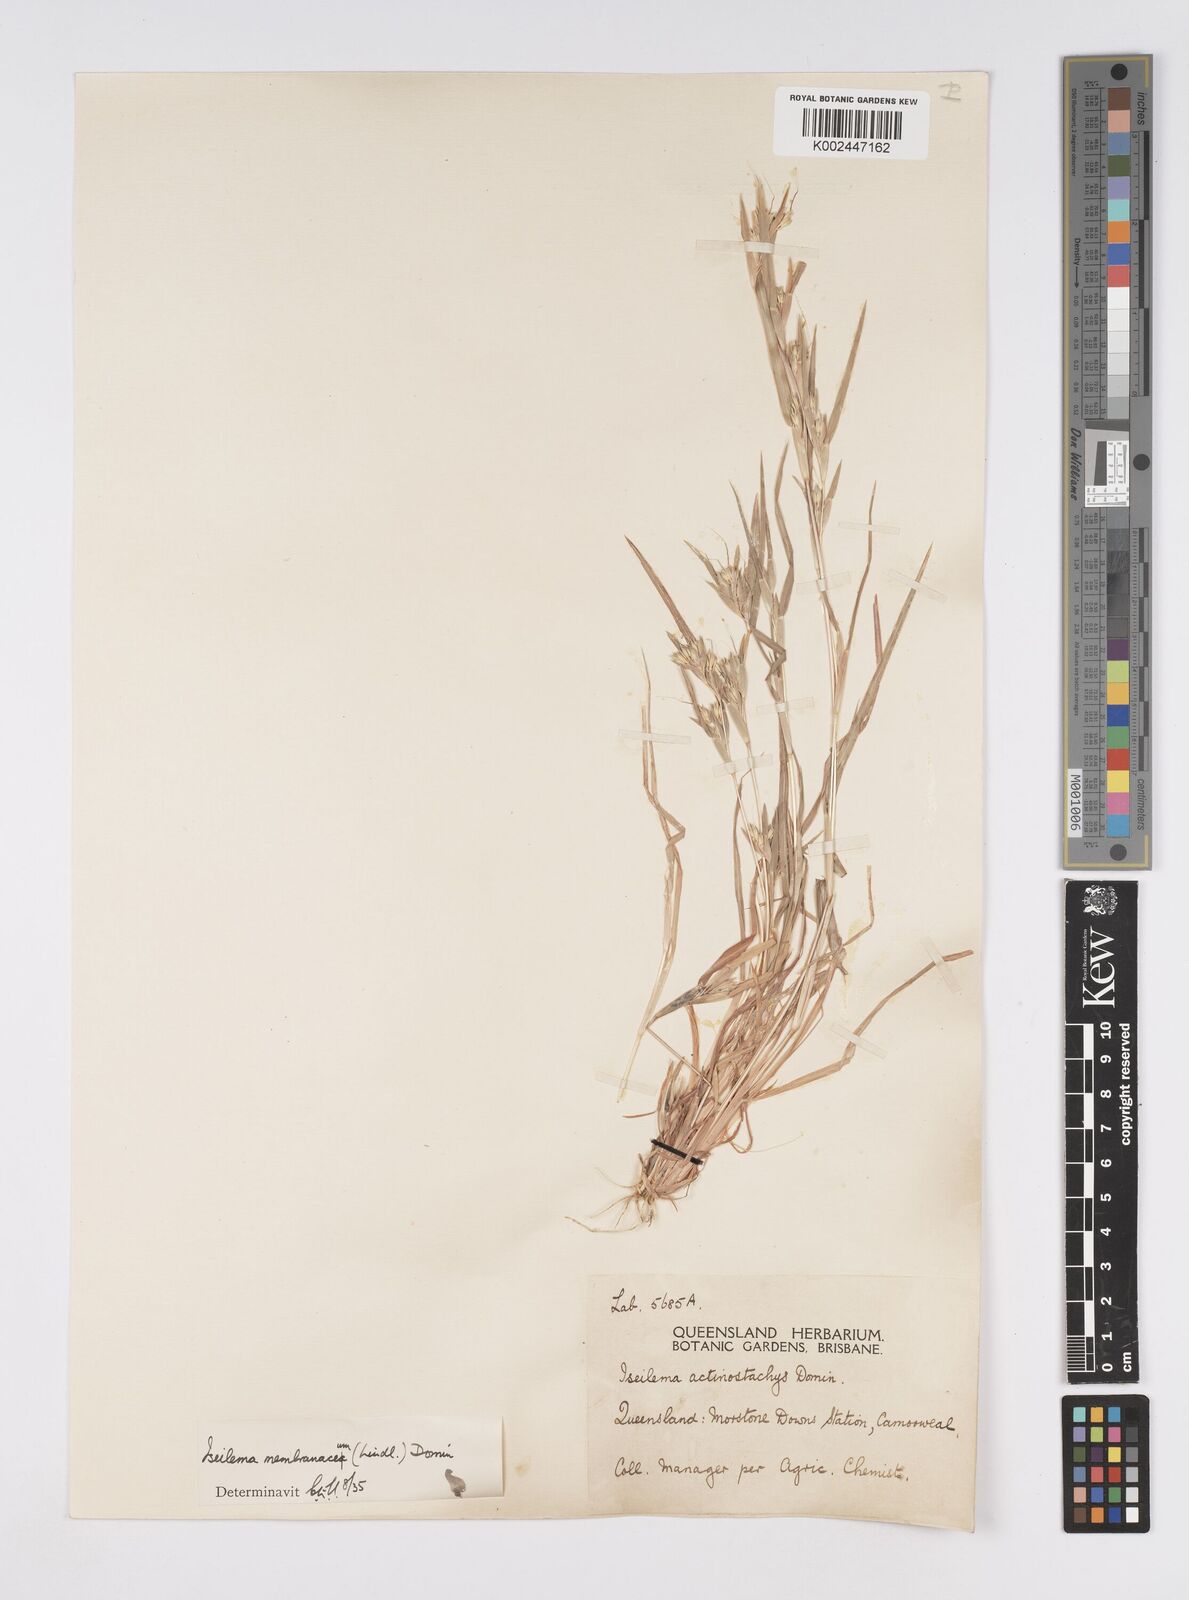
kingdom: Plantae
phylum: Tracheophyta
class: Liliopsida
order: Poales
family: Poaceae
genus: Iseilema
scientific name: Iseilema membranaceum
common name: Small flinders grass
